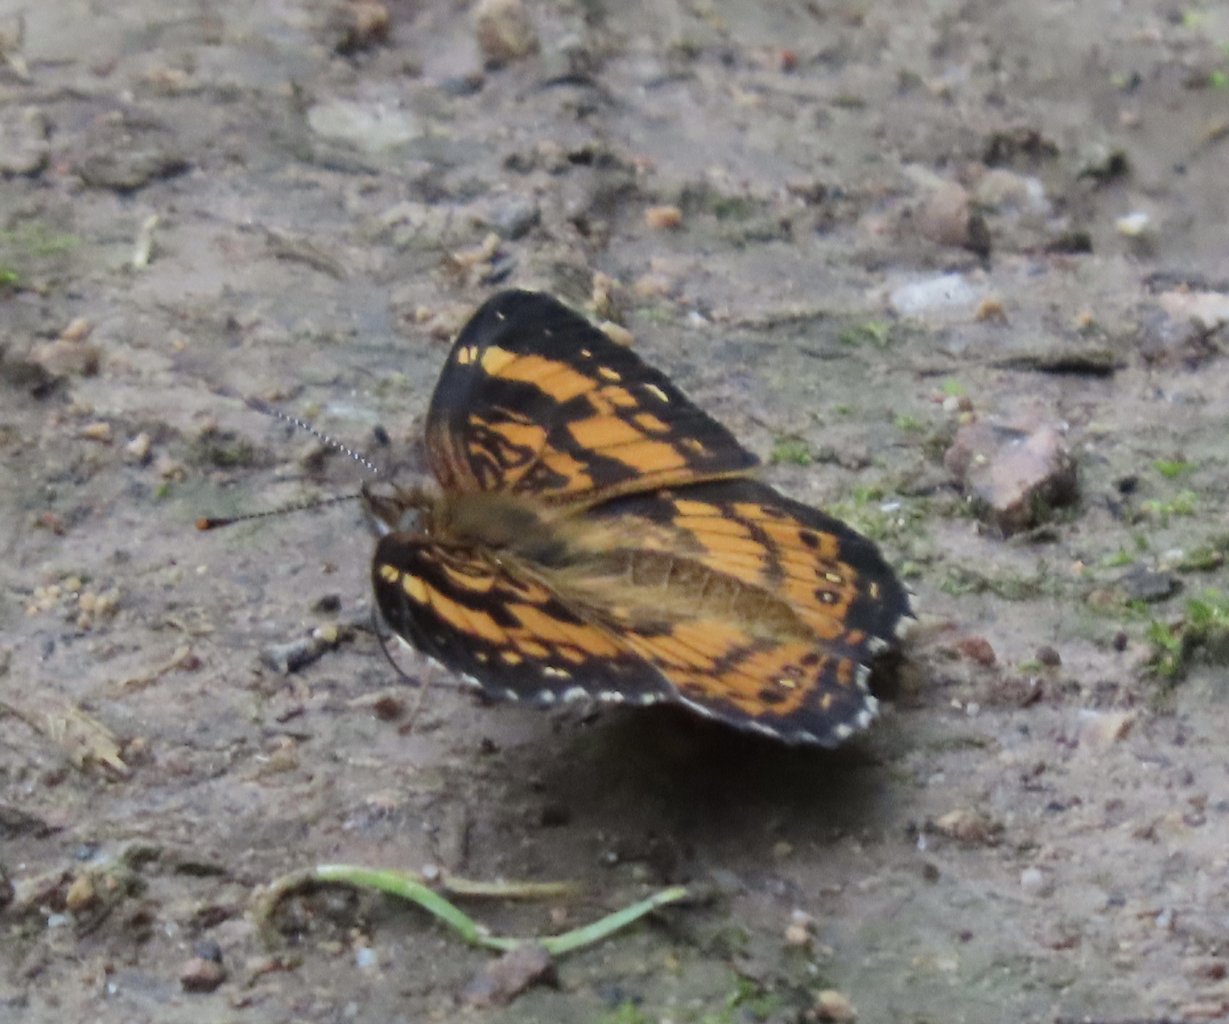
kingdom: Animalia
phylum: Arthropoda
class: Insecta
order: Lepidoptera
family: Nymphalidae
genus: Chlosyne
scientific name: Chlosyne nycteis
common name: Silvery Checkerspot
